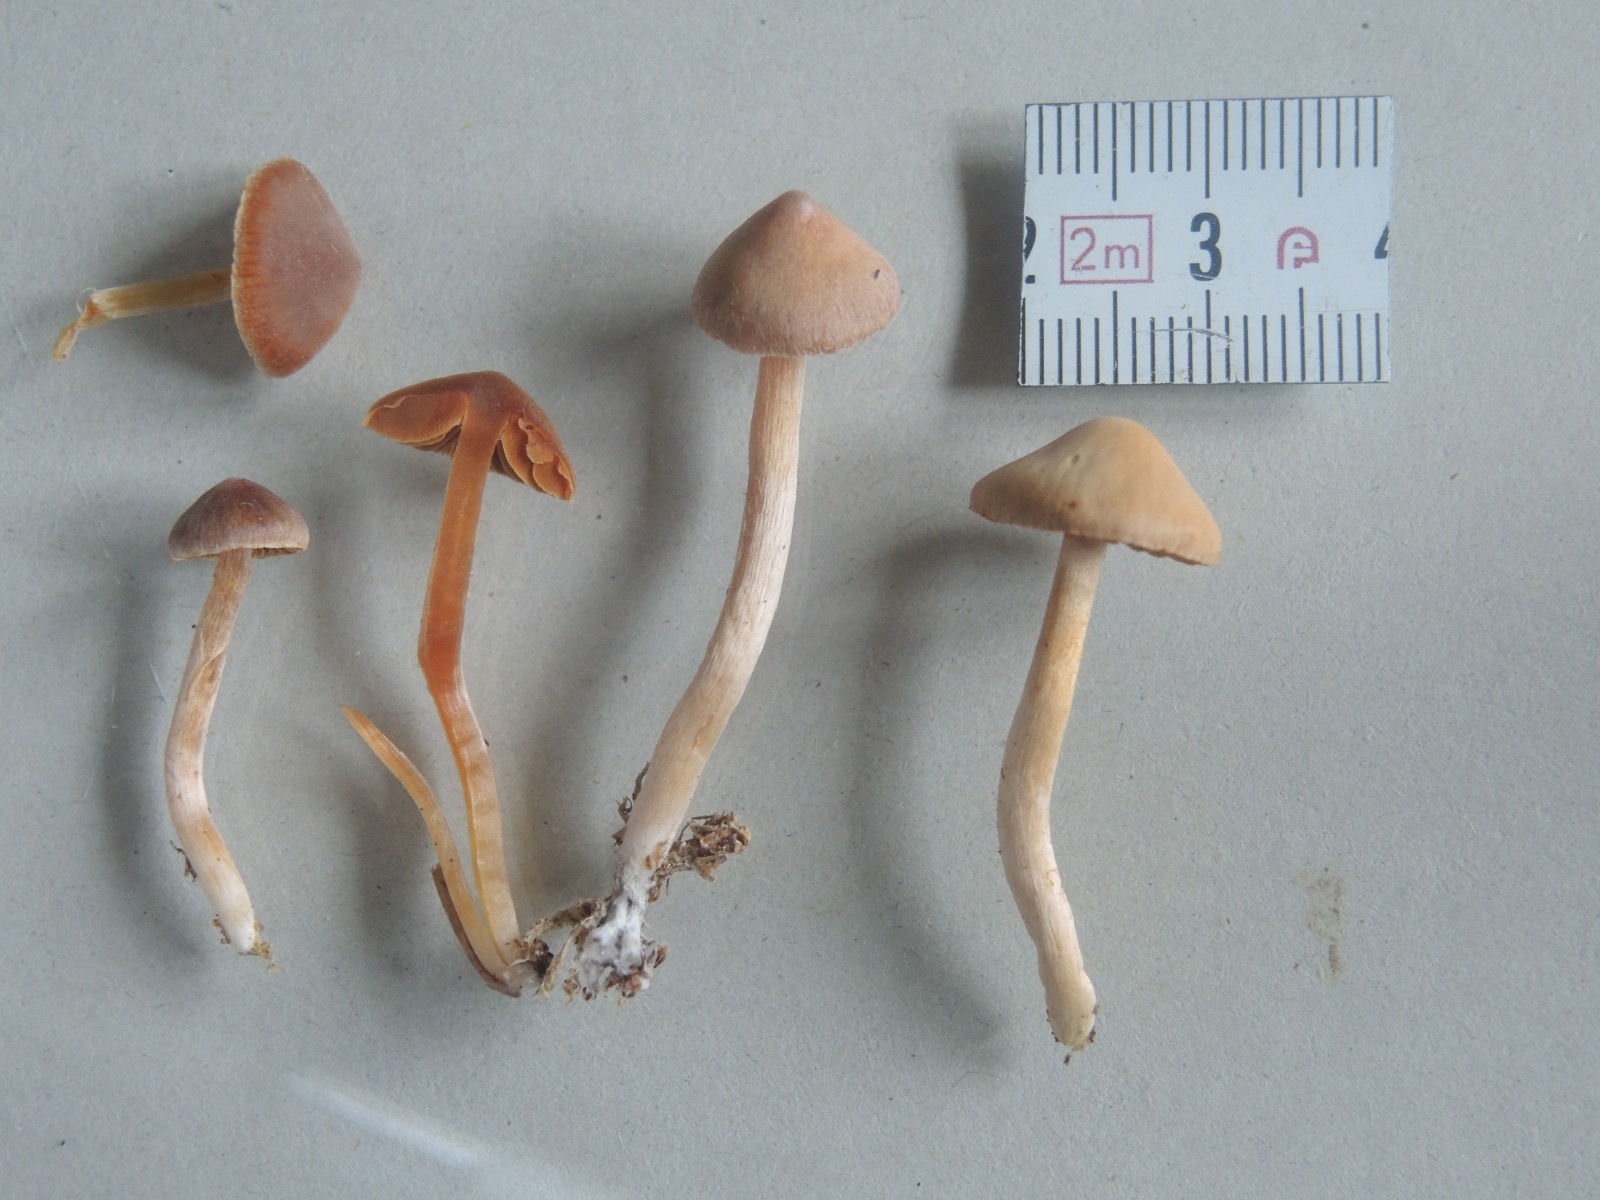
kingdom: Fungi
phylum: Basidiomycota
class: Agaricomycetes
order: Agaricales
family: Cortinariaceae
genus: Cortinarius
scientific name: Cortinarius aurae
